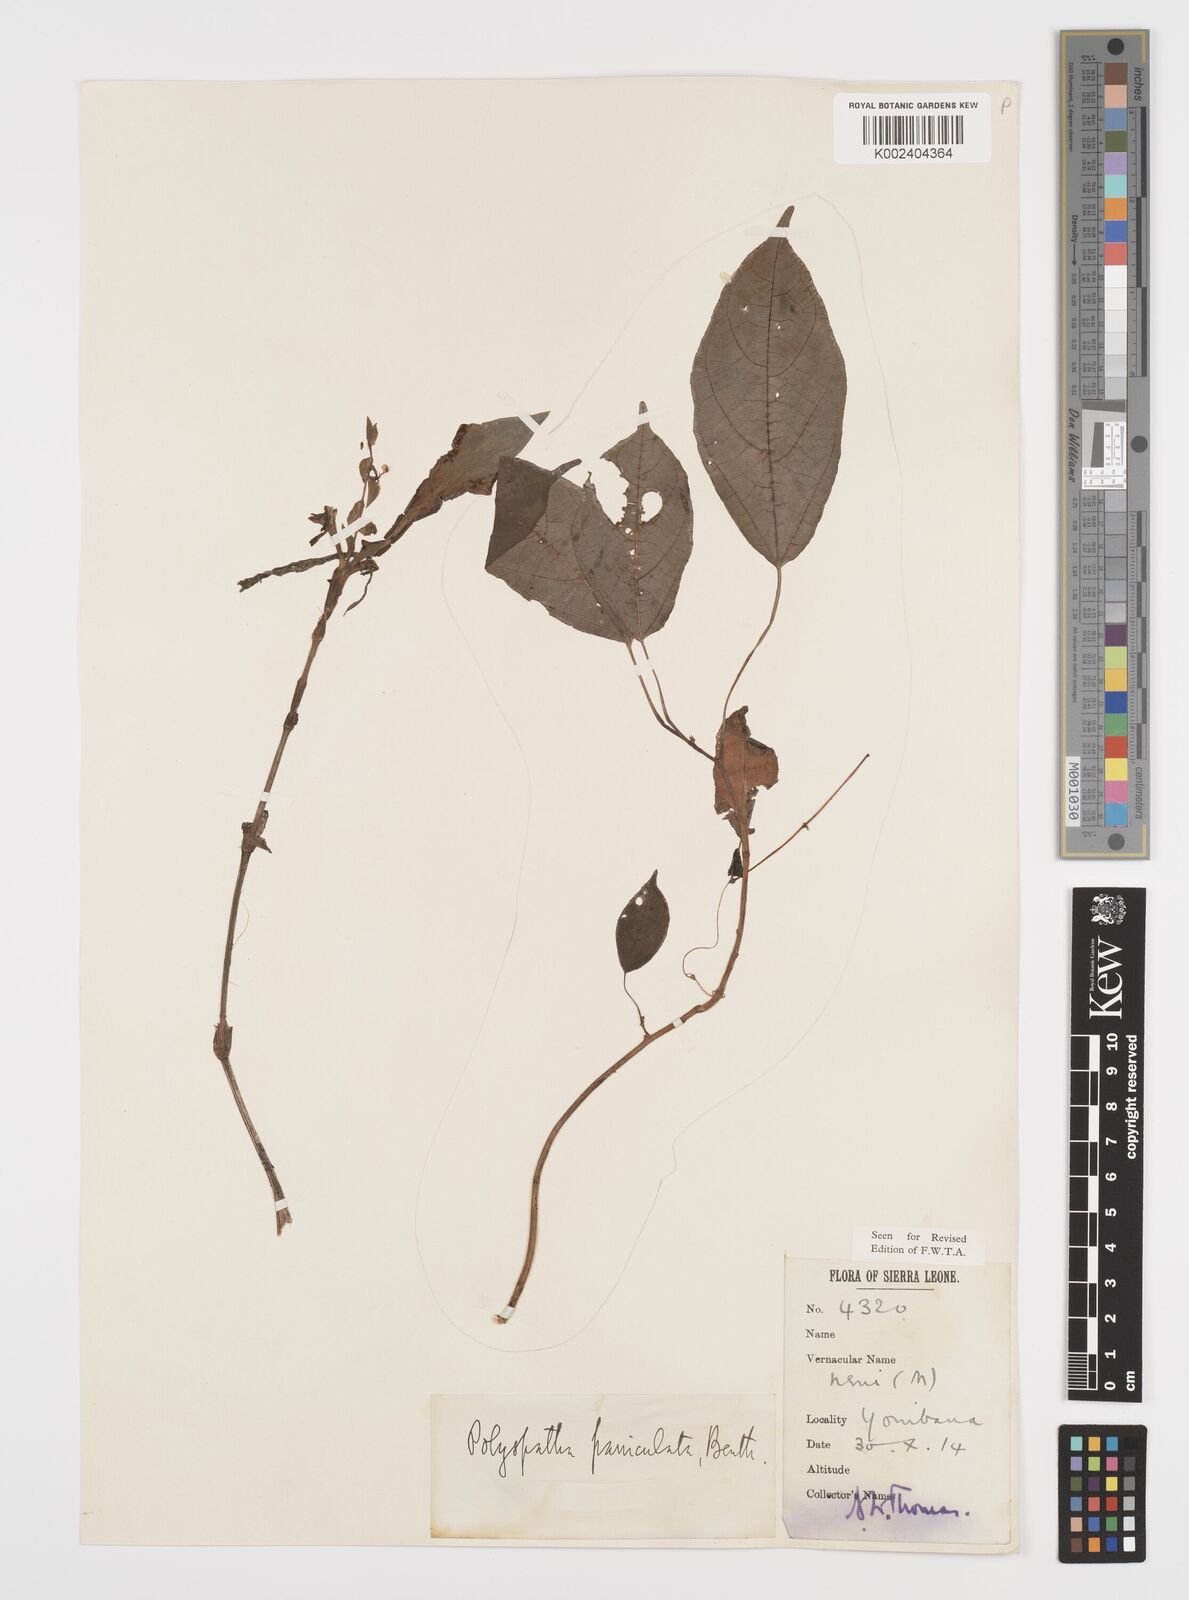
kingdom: Plantae
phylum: Tracheophyta
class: Liliopsida
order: Commelinales
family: Commelinaceae
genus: Polyspatha
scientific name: Polyspatha paniculata
